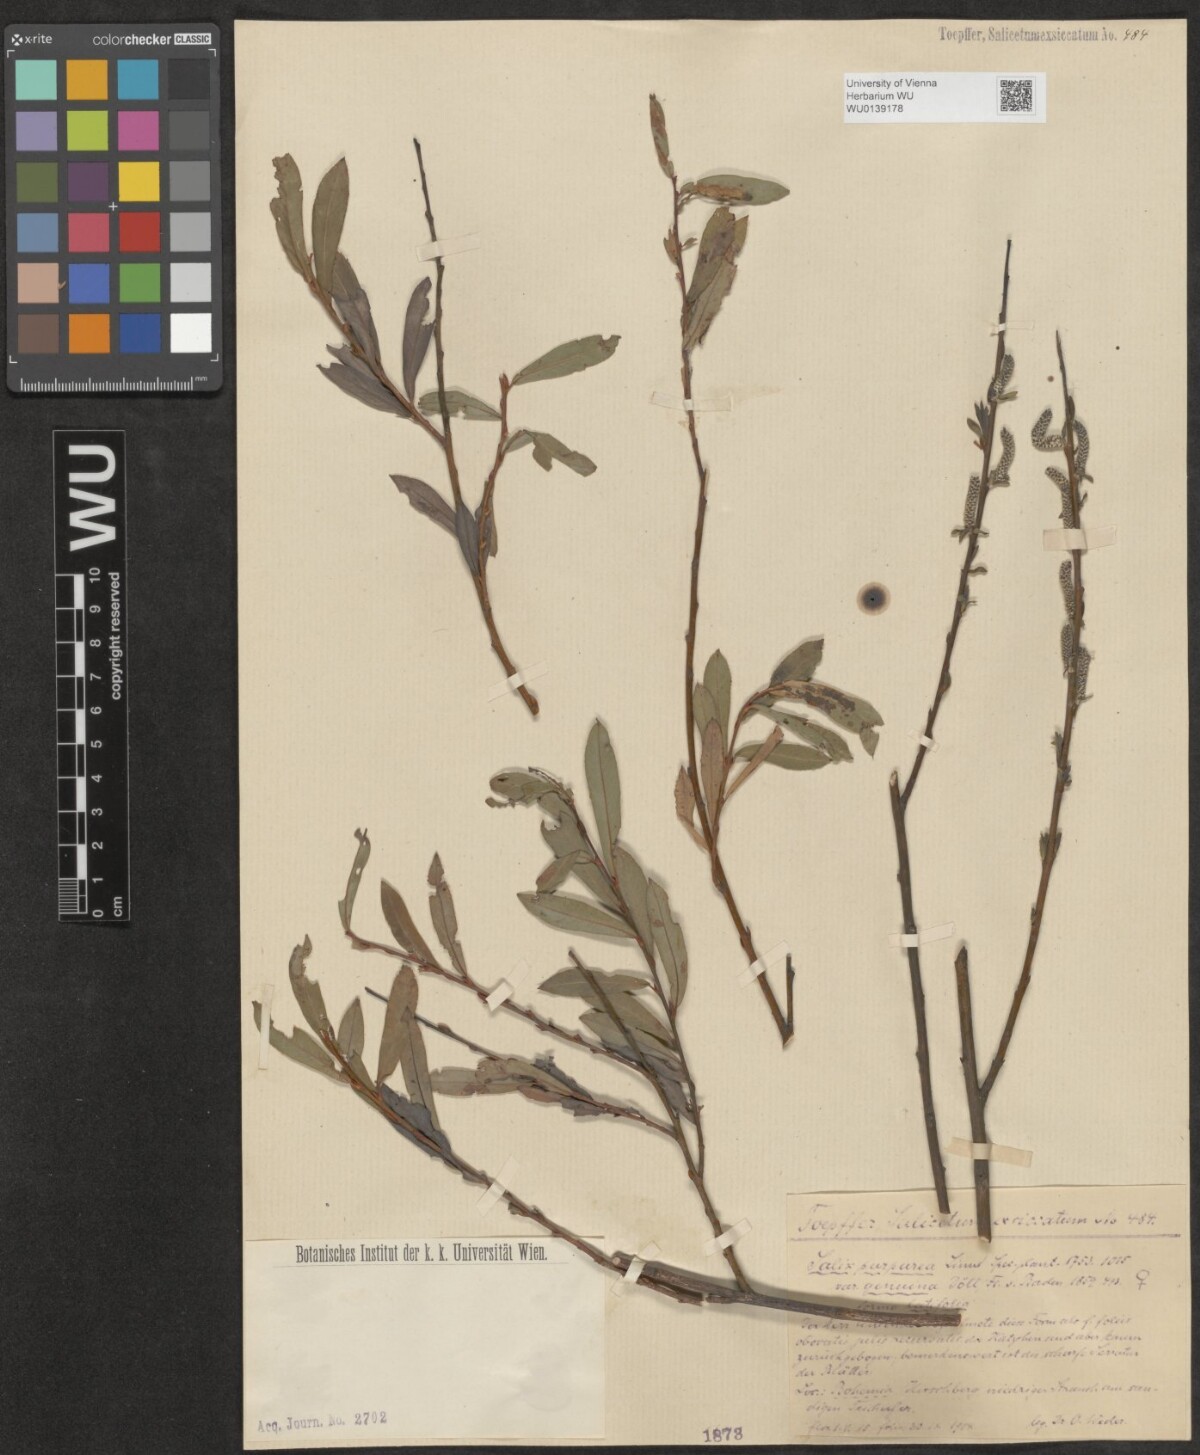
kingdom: Plantae
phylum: Tracheophyta
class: Magnoliopsida
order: Malpighiales
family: Salicaceae
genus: Salix
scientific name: Salix purpurea
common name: Purple willow
